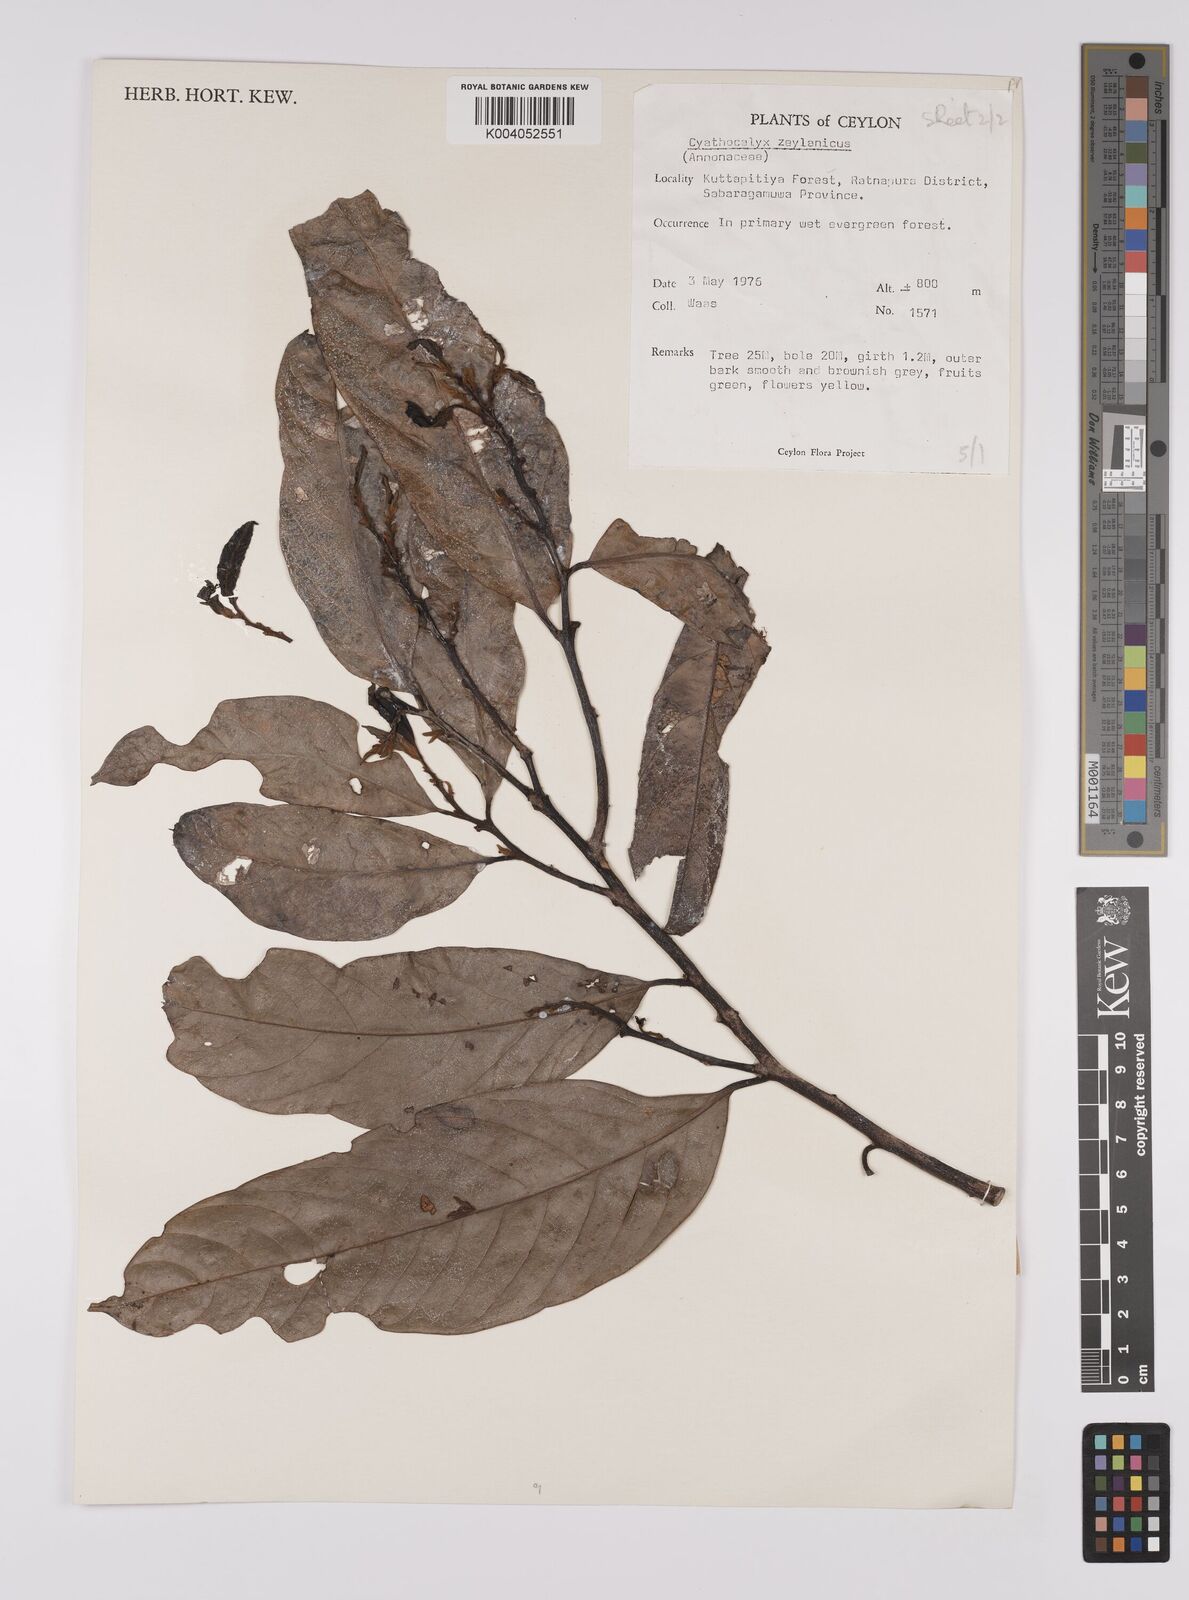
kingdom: Plantae
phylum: Tracheophyta
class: Magnoliopsida
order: Magnoliales
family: Annonaceae
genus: Cyathocalyx
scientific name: Cyathocalyx zeylanicus
